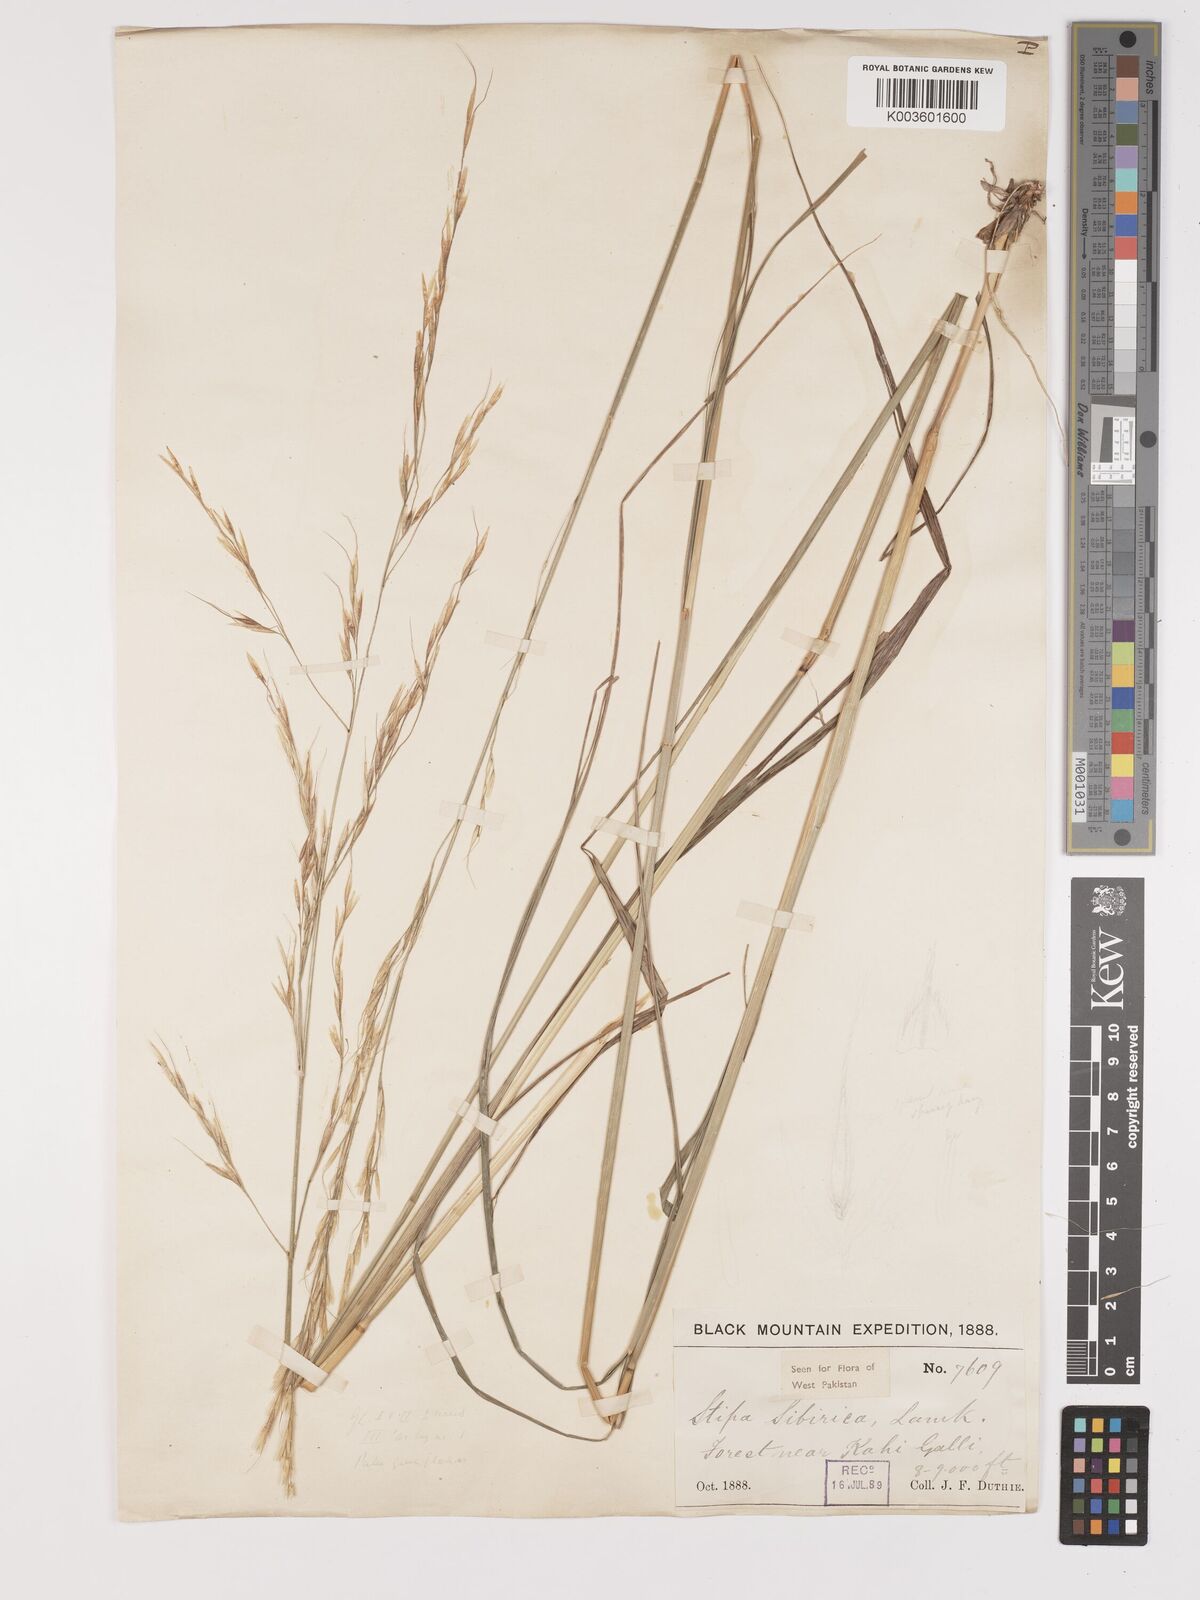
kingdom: Plantae
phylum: Tracheophyta
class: Liliopsida
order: Poales
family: Poaceae
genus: Achnatherum
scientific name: Achnatherum brandisii
